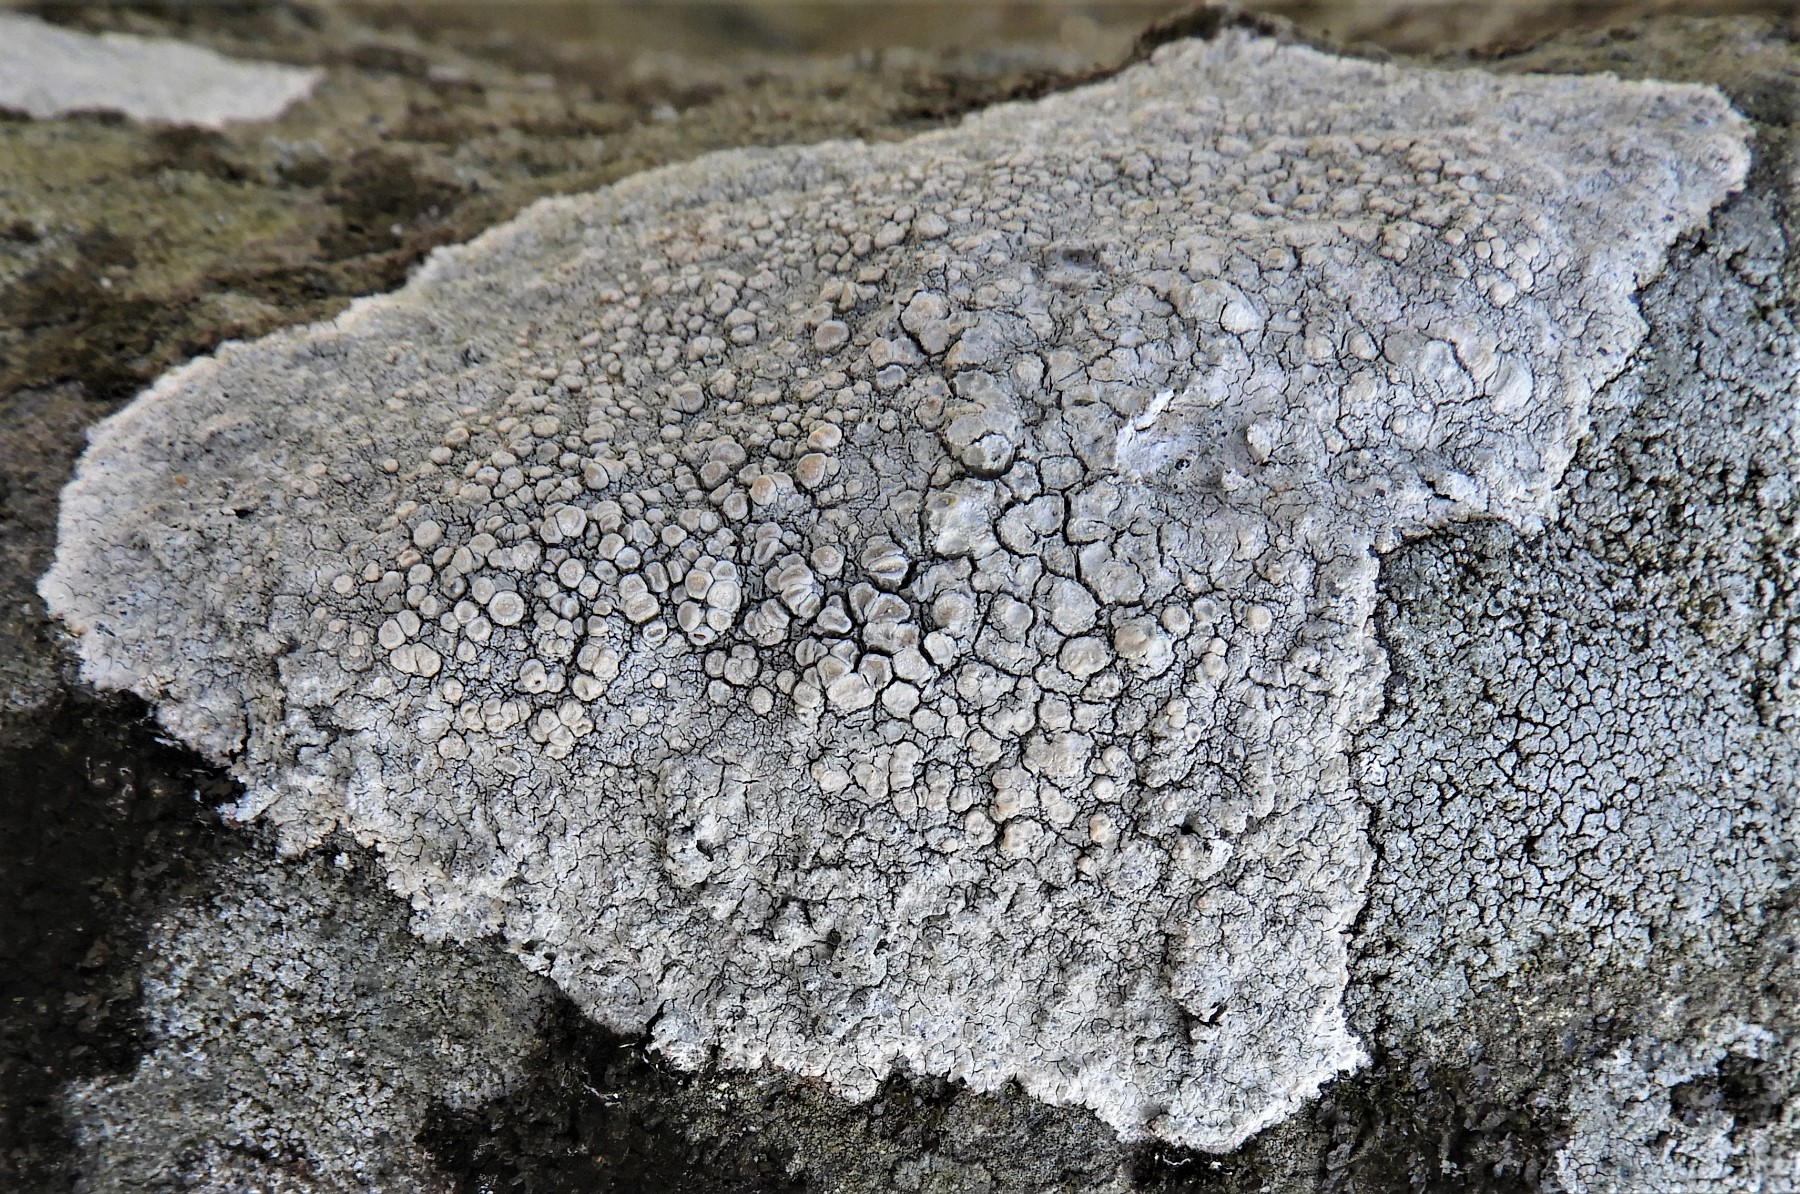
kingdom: Fungi
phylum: Ascomycota
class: Lecanoromycetes
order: Pertusariales
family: Ochrolechiaceae
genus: Ochrolechia
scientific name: Ochrolechia parella
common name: almindelig blegskivelav
